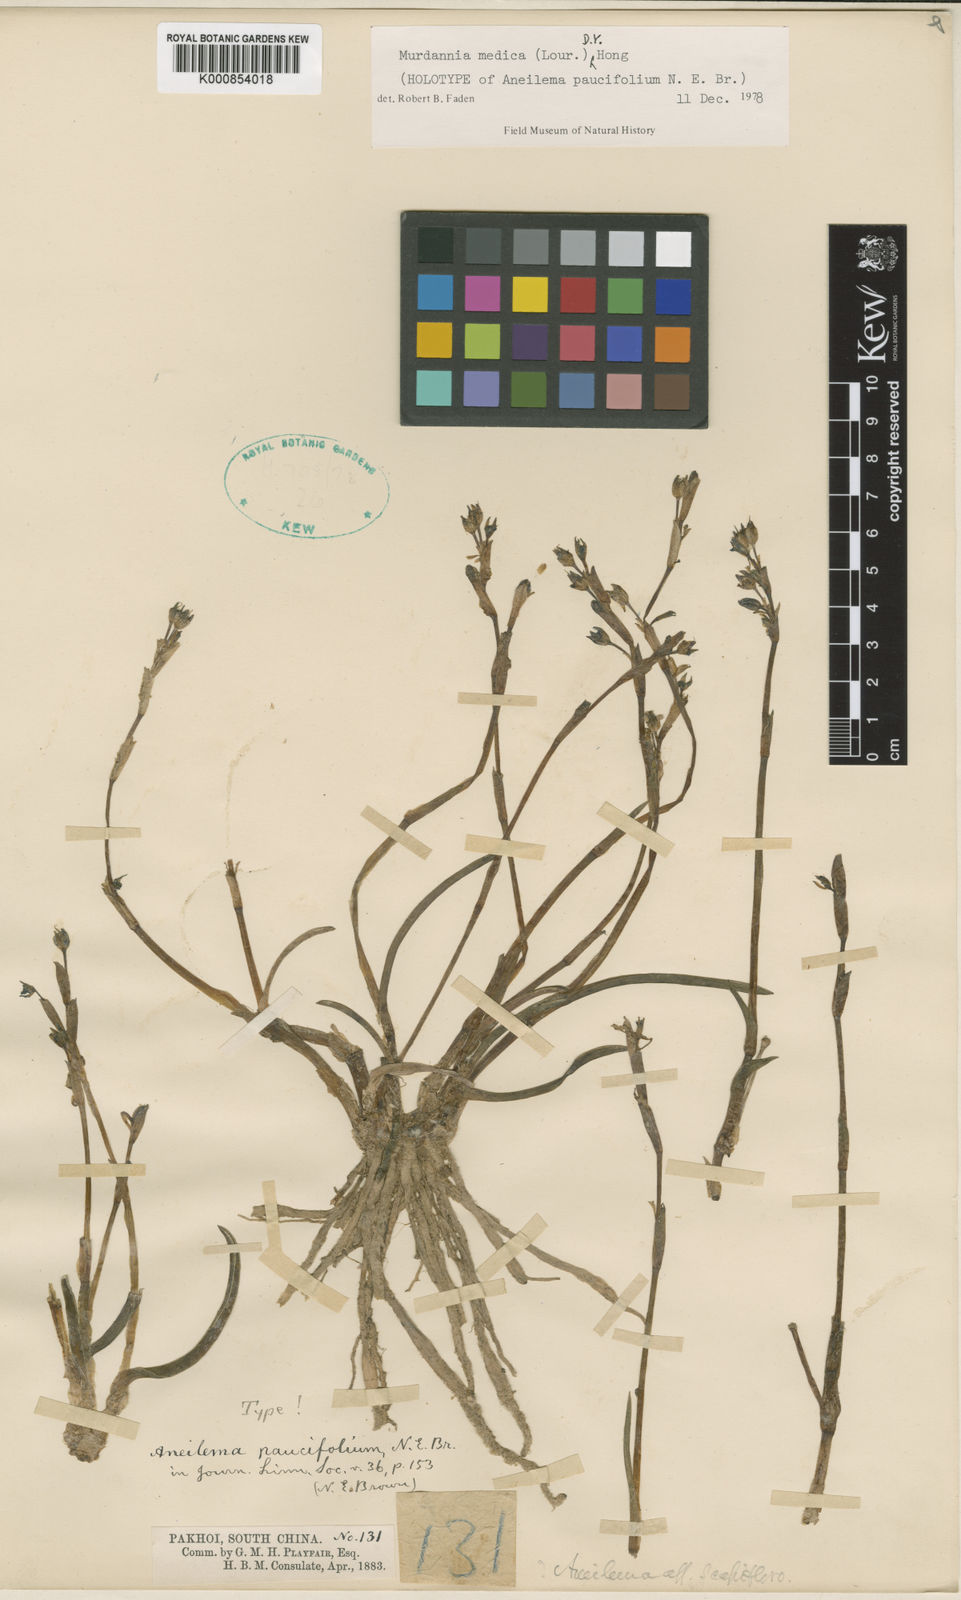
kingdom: Plantae
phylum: Tracheophyta
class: Liliopsida
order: Commelinales
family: Commelinaceae
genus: Murdannia
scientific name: Murdannia medica
